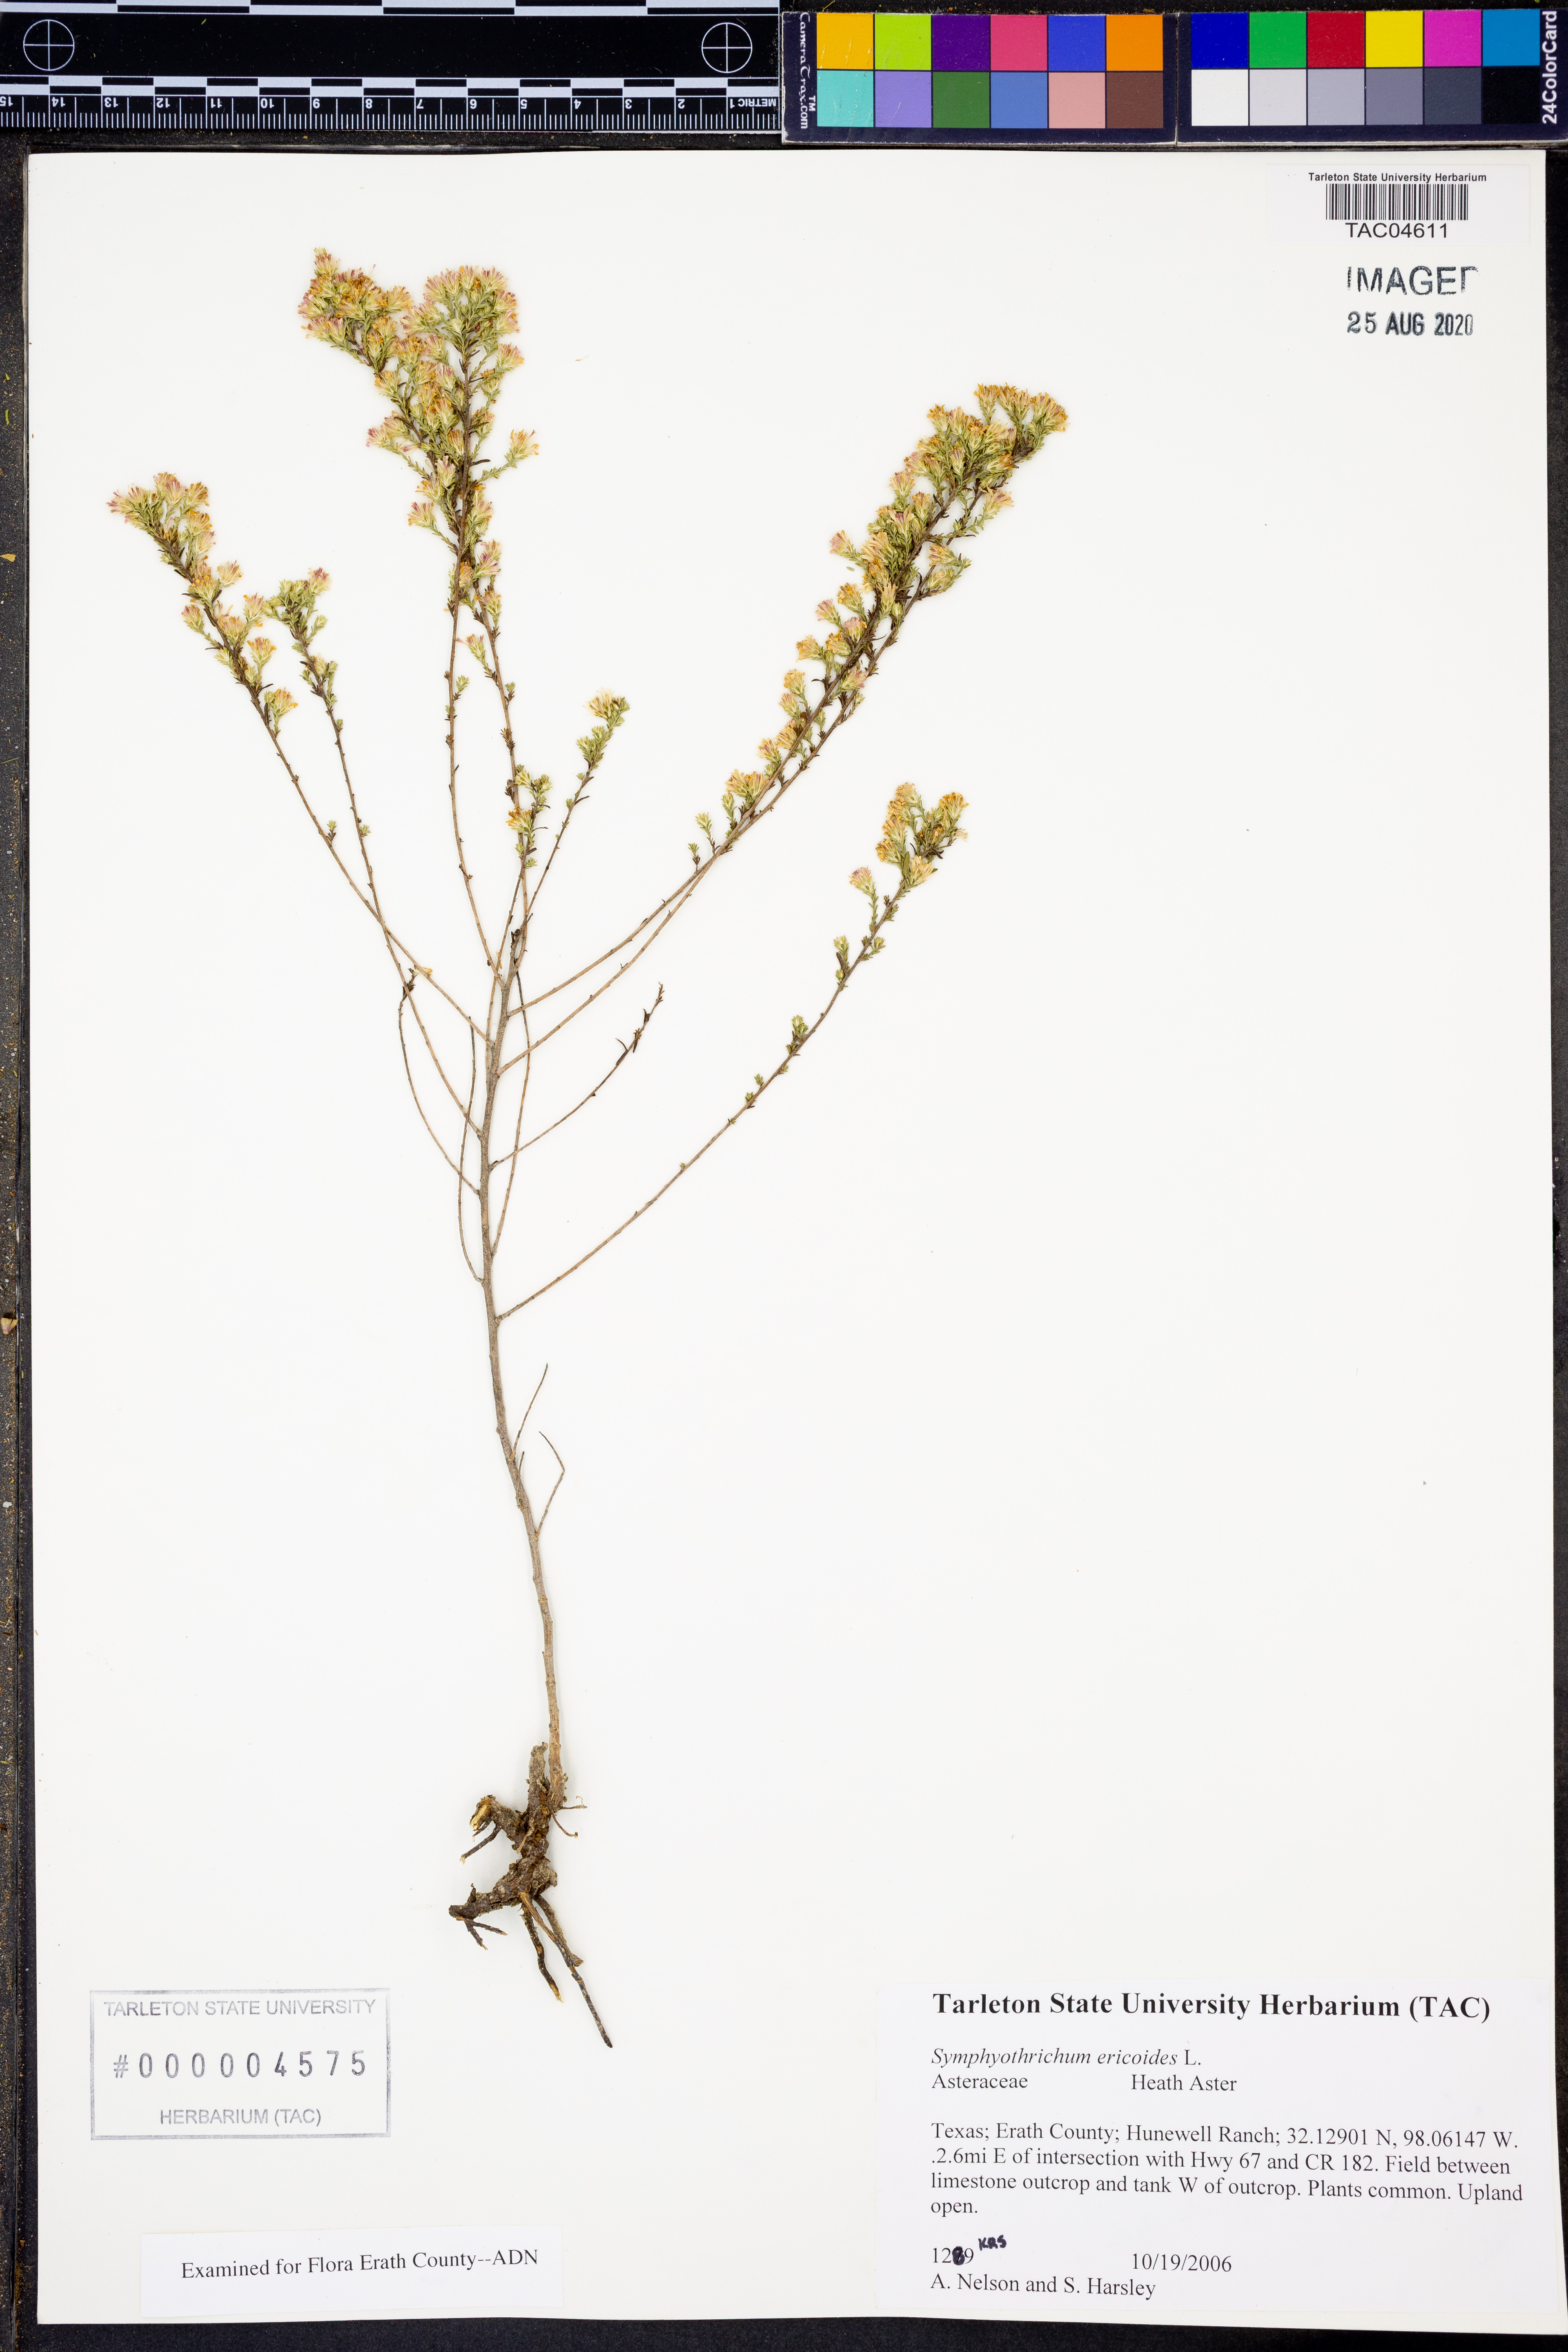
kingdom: Plantae
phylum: Tracheophyta
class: Magnoliopsida
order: Asterales
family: Asteraceae
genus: Symphyotrichum
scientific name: Symphyotrichum ericoides
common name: Heath aster
